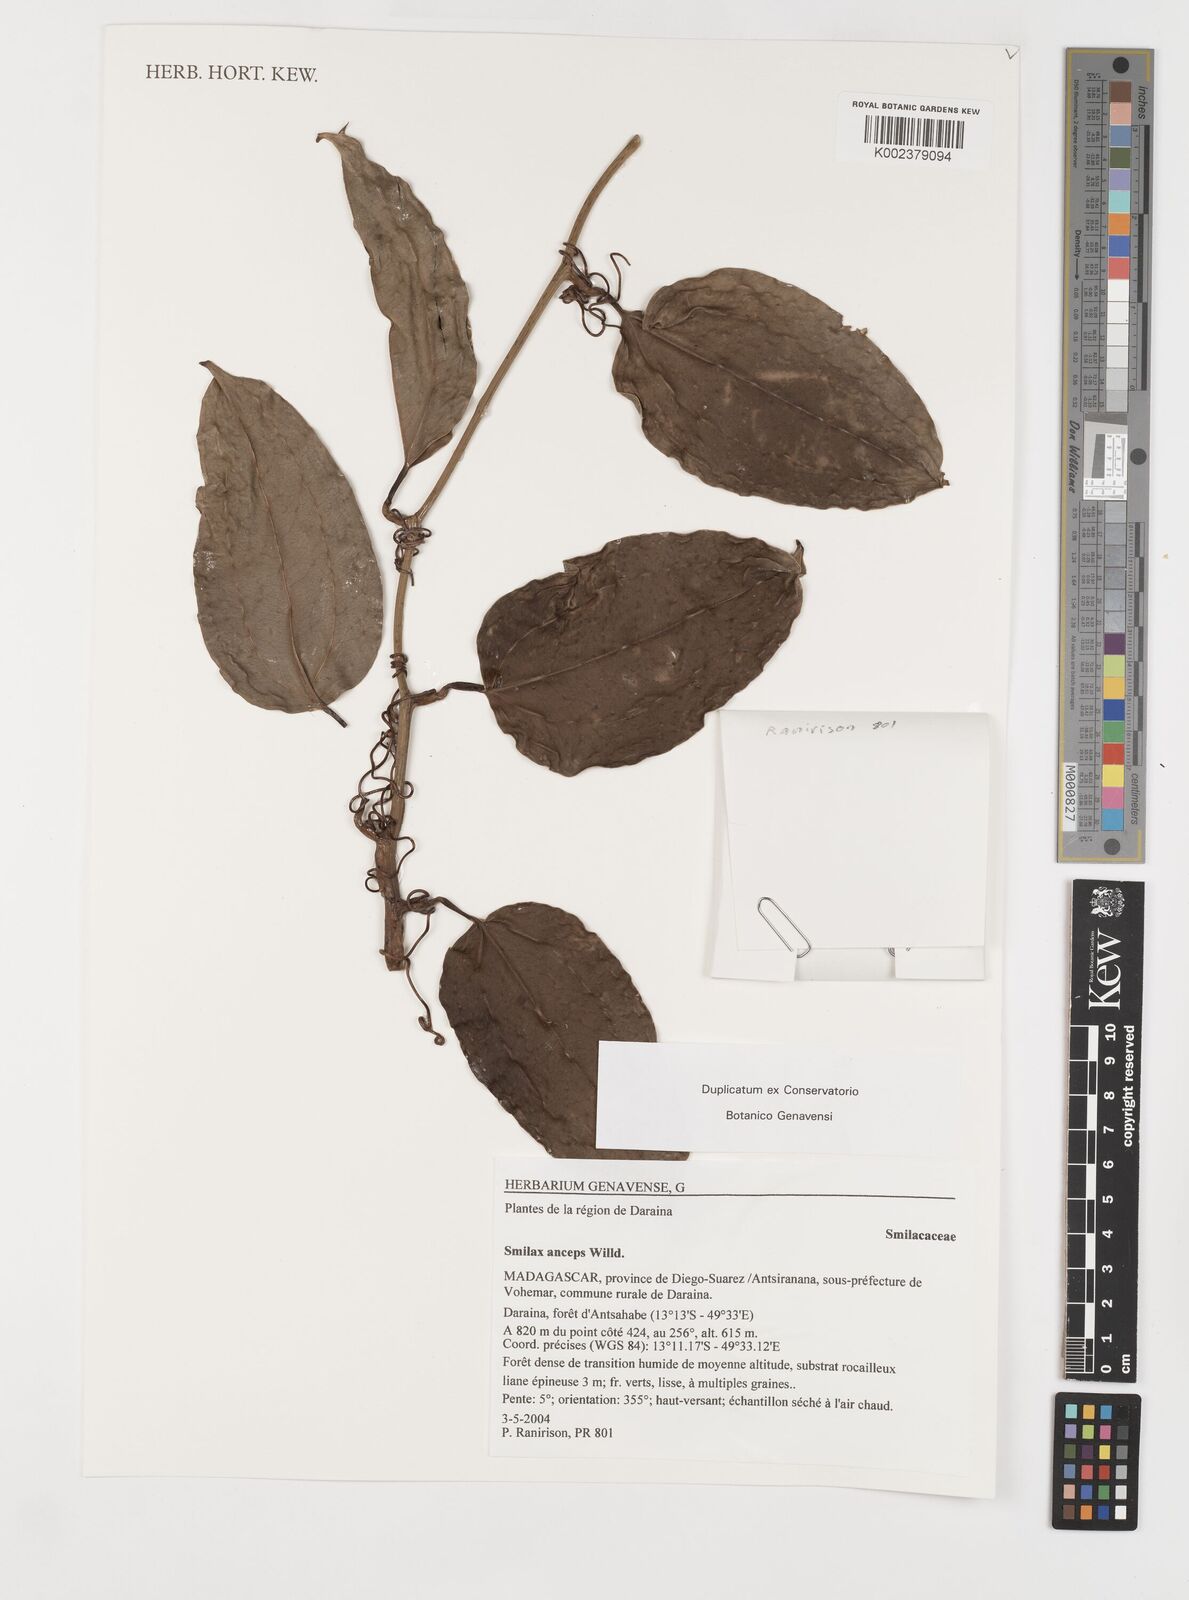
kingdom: Plantae
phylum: Tracheophyta
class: Liliopsida
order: Liliales
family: Smilacaceae
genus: Smilax
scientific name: Smilax anceps
